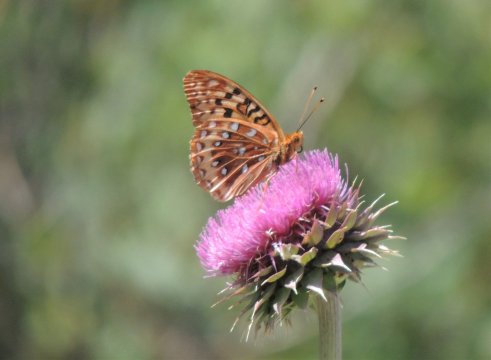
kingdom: Animalia
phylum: Arthropoda
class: Insecta
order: Lepidoptera
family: Nymphalidae
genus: Speyeria
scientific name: Speyeria cybele
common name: Great Spangled Fritillary
